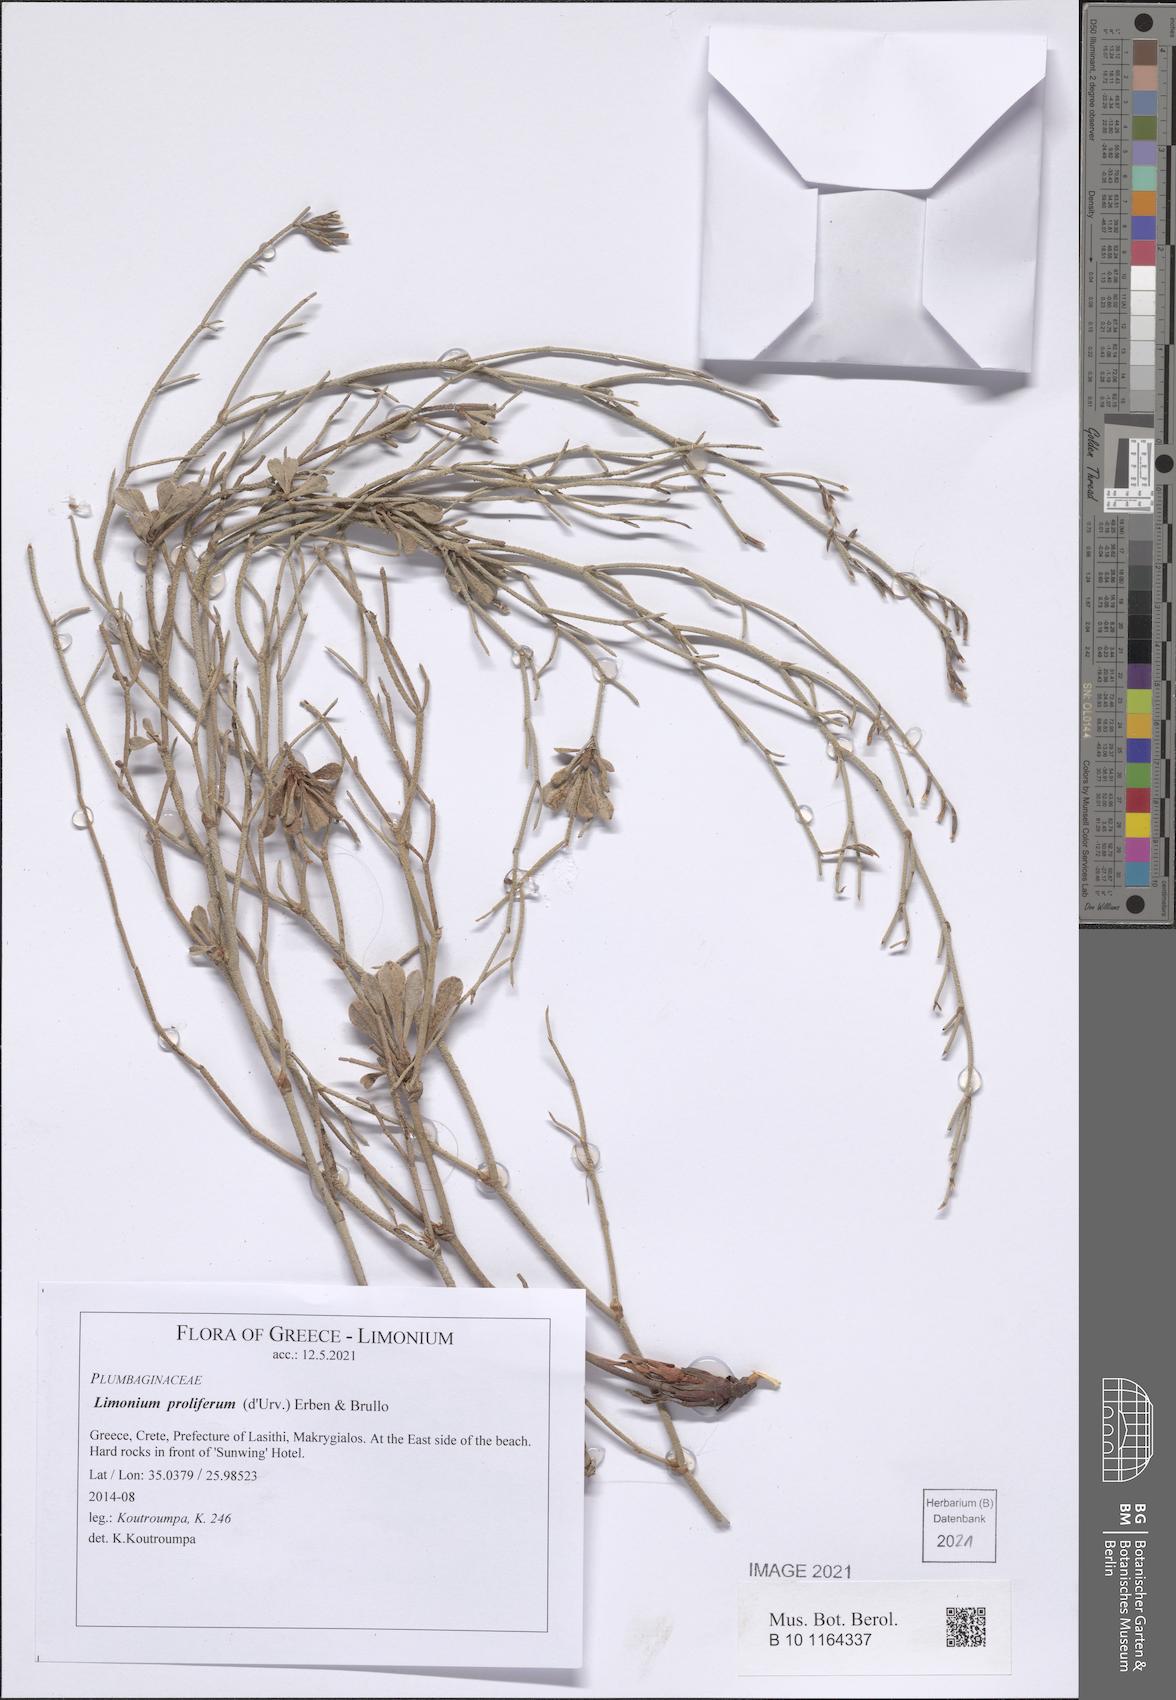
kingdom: Plantae
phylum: Tracheophyta
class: Magnoliopsida
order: Caryophyllales
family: Plumbaginaceae
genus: Limonium
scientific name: Limonium proliferum
